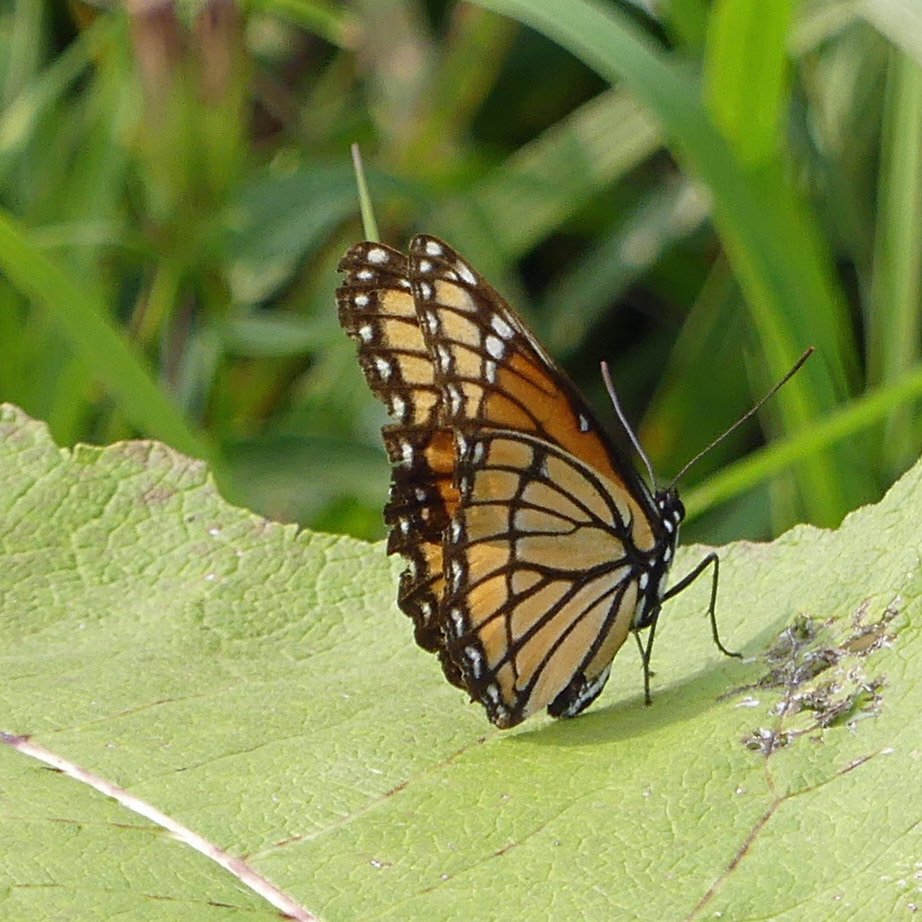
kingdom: Animalia
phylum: Arthropoda
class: Insecta
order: Lepidoptera
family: Nymphalidae
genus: Limenitis
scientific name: Limenitis archippus
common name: Viceroy
